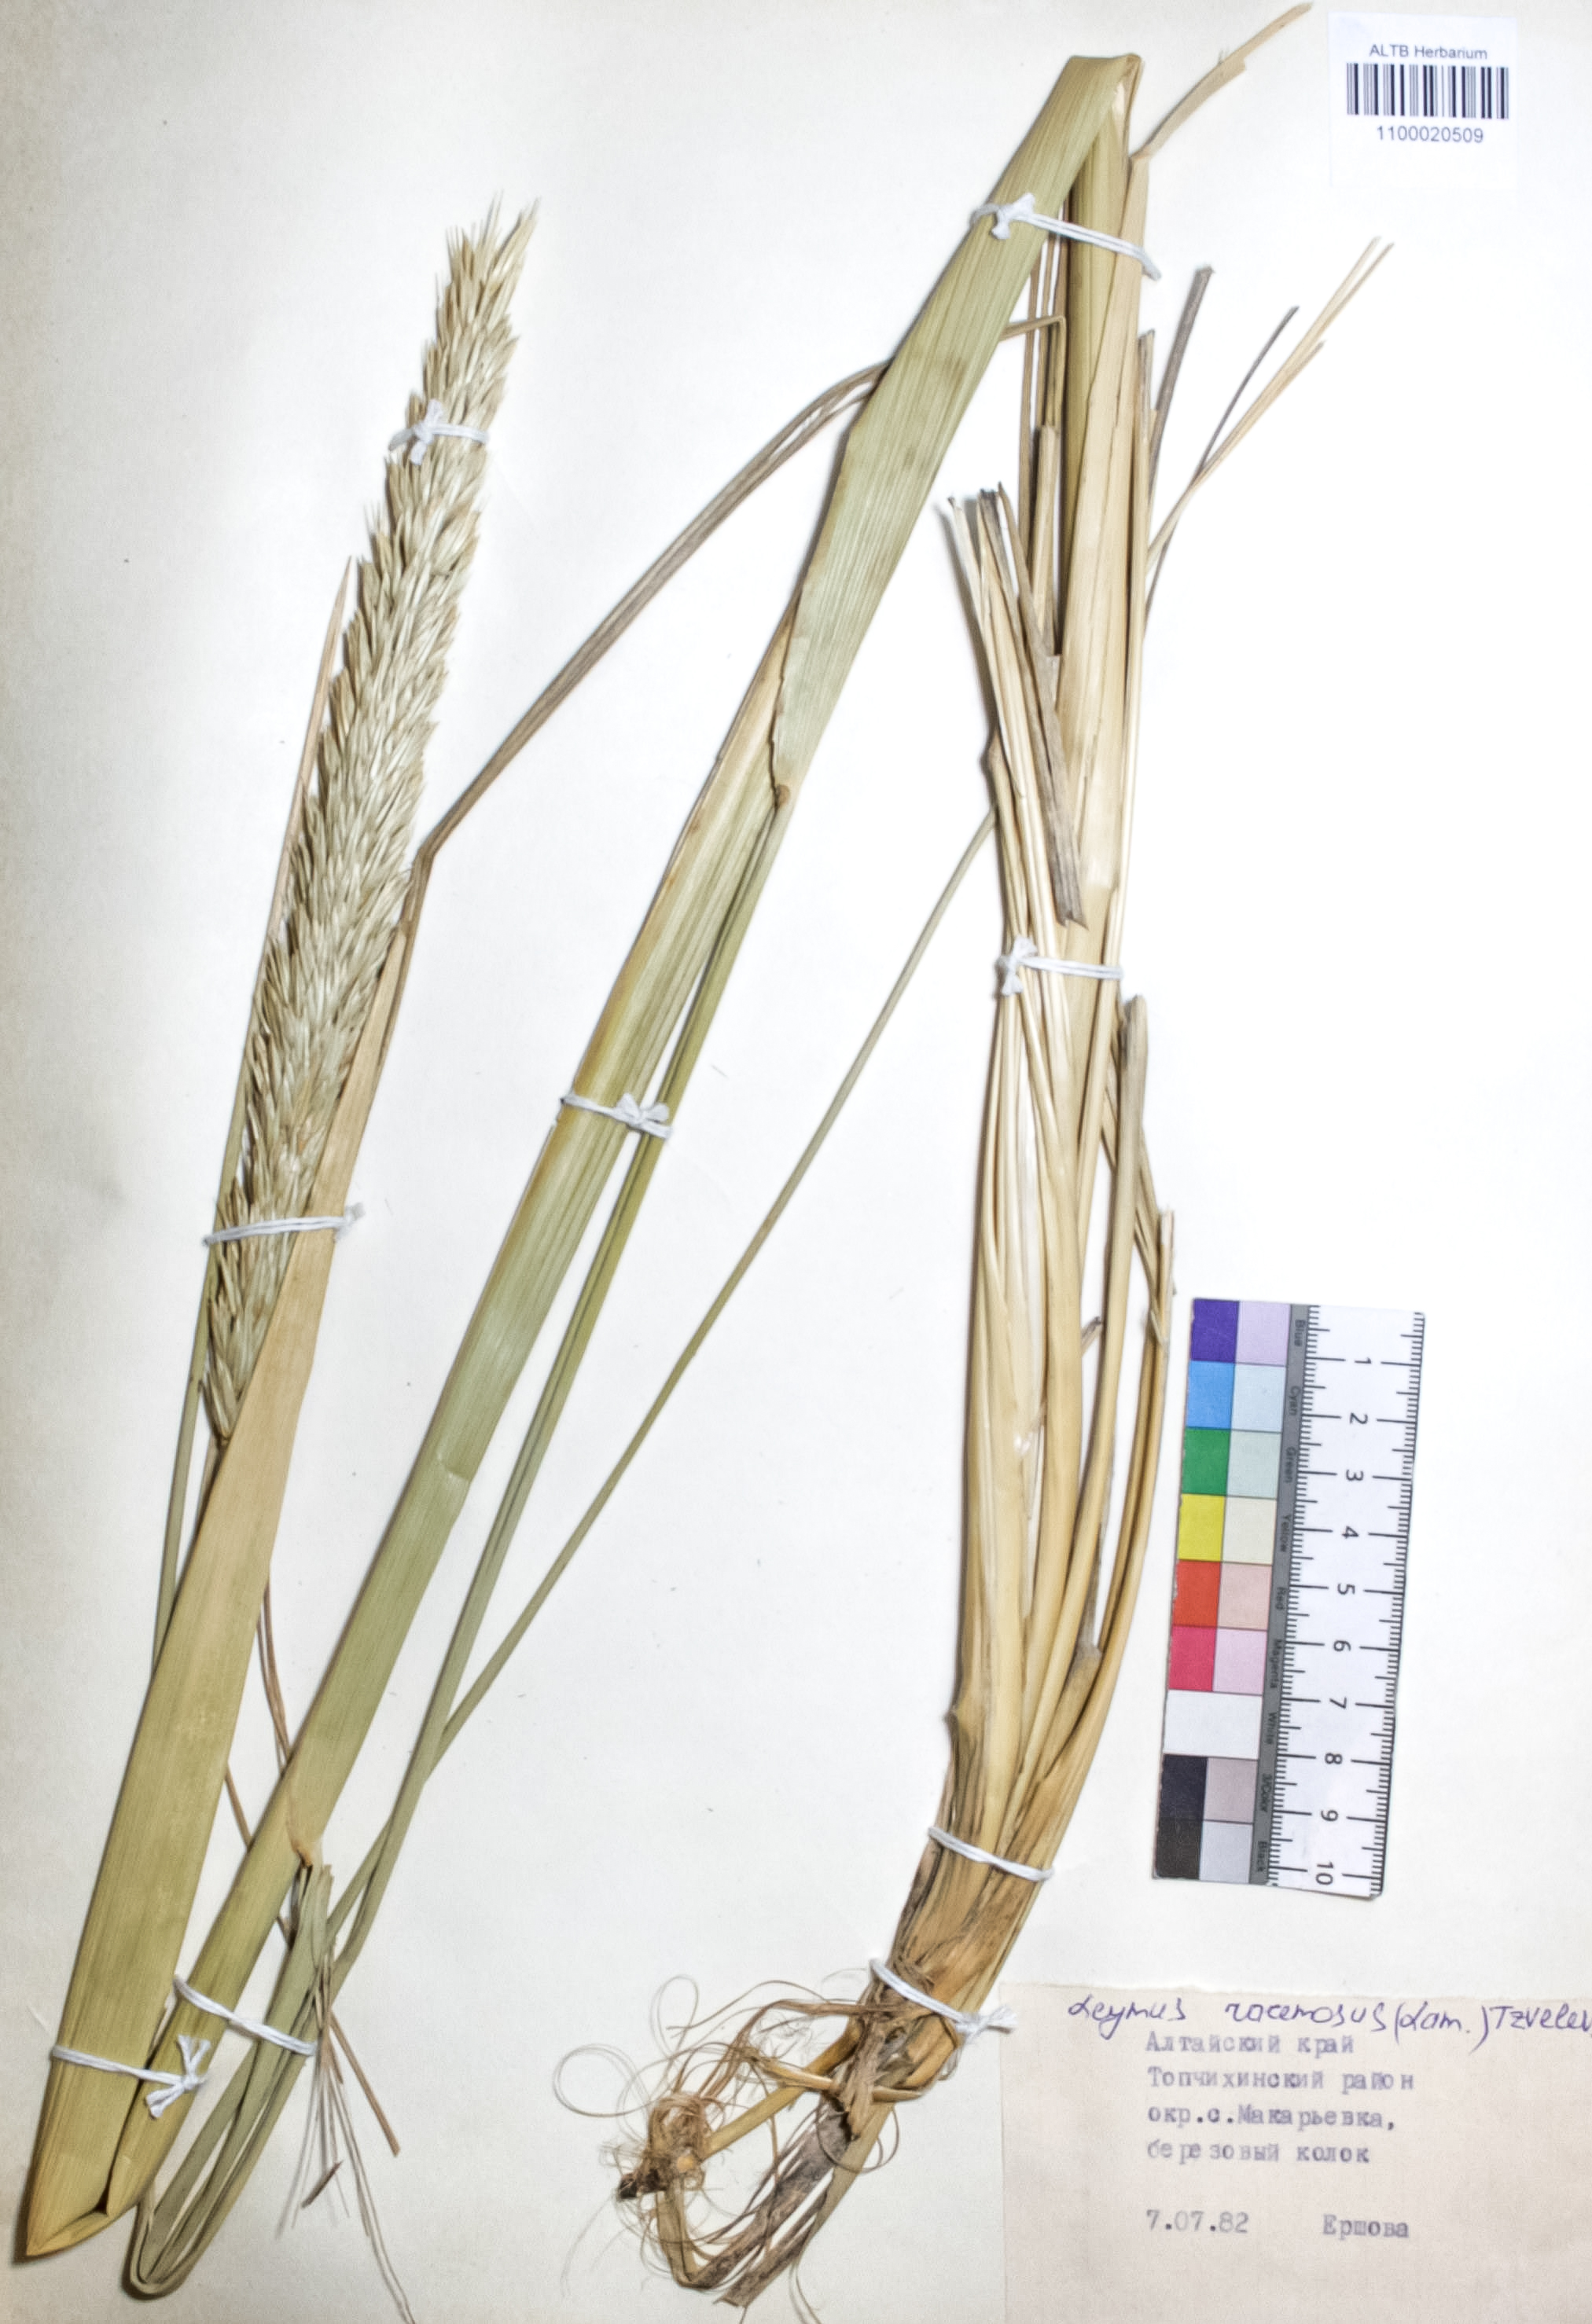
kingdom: Plantae
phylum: Tracheophyta
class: Liliopsida
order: Poales
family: Poaceae
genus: Leymus
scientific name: Leymus racemosus
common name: Mammoth wildrye
